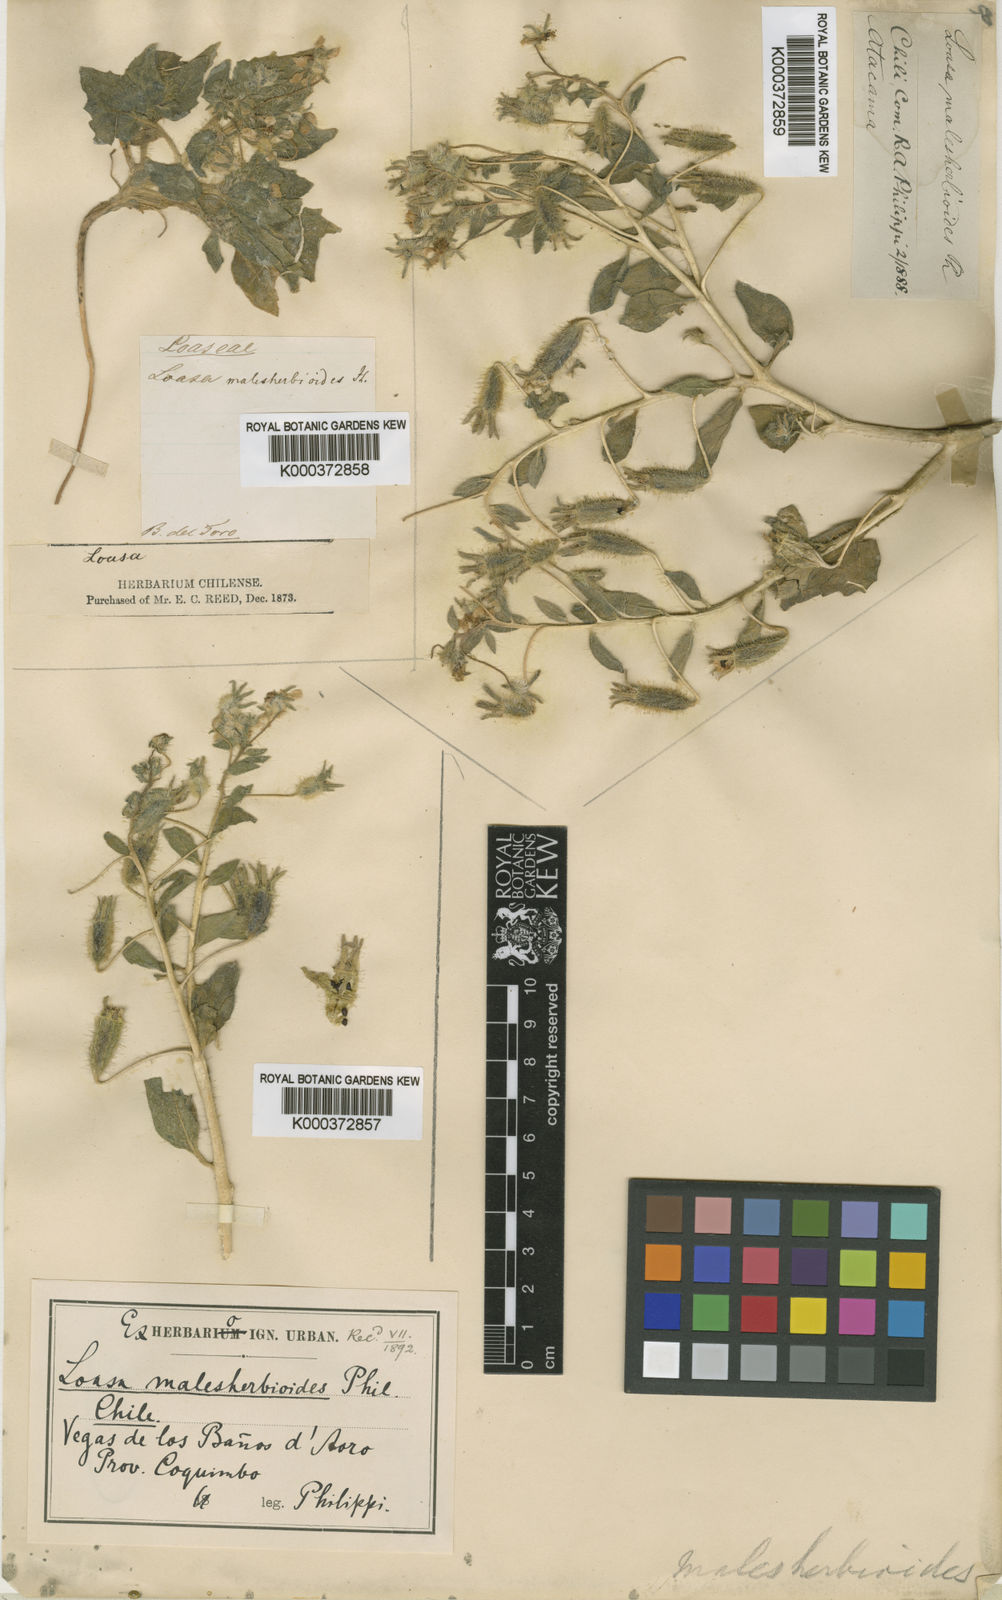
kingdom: Plantae
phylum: Tracheophyta
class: Magnoliopsida
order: Cornales
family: Loasaceae
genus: Presliophytum
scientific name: Presliophytum malesherbioides
